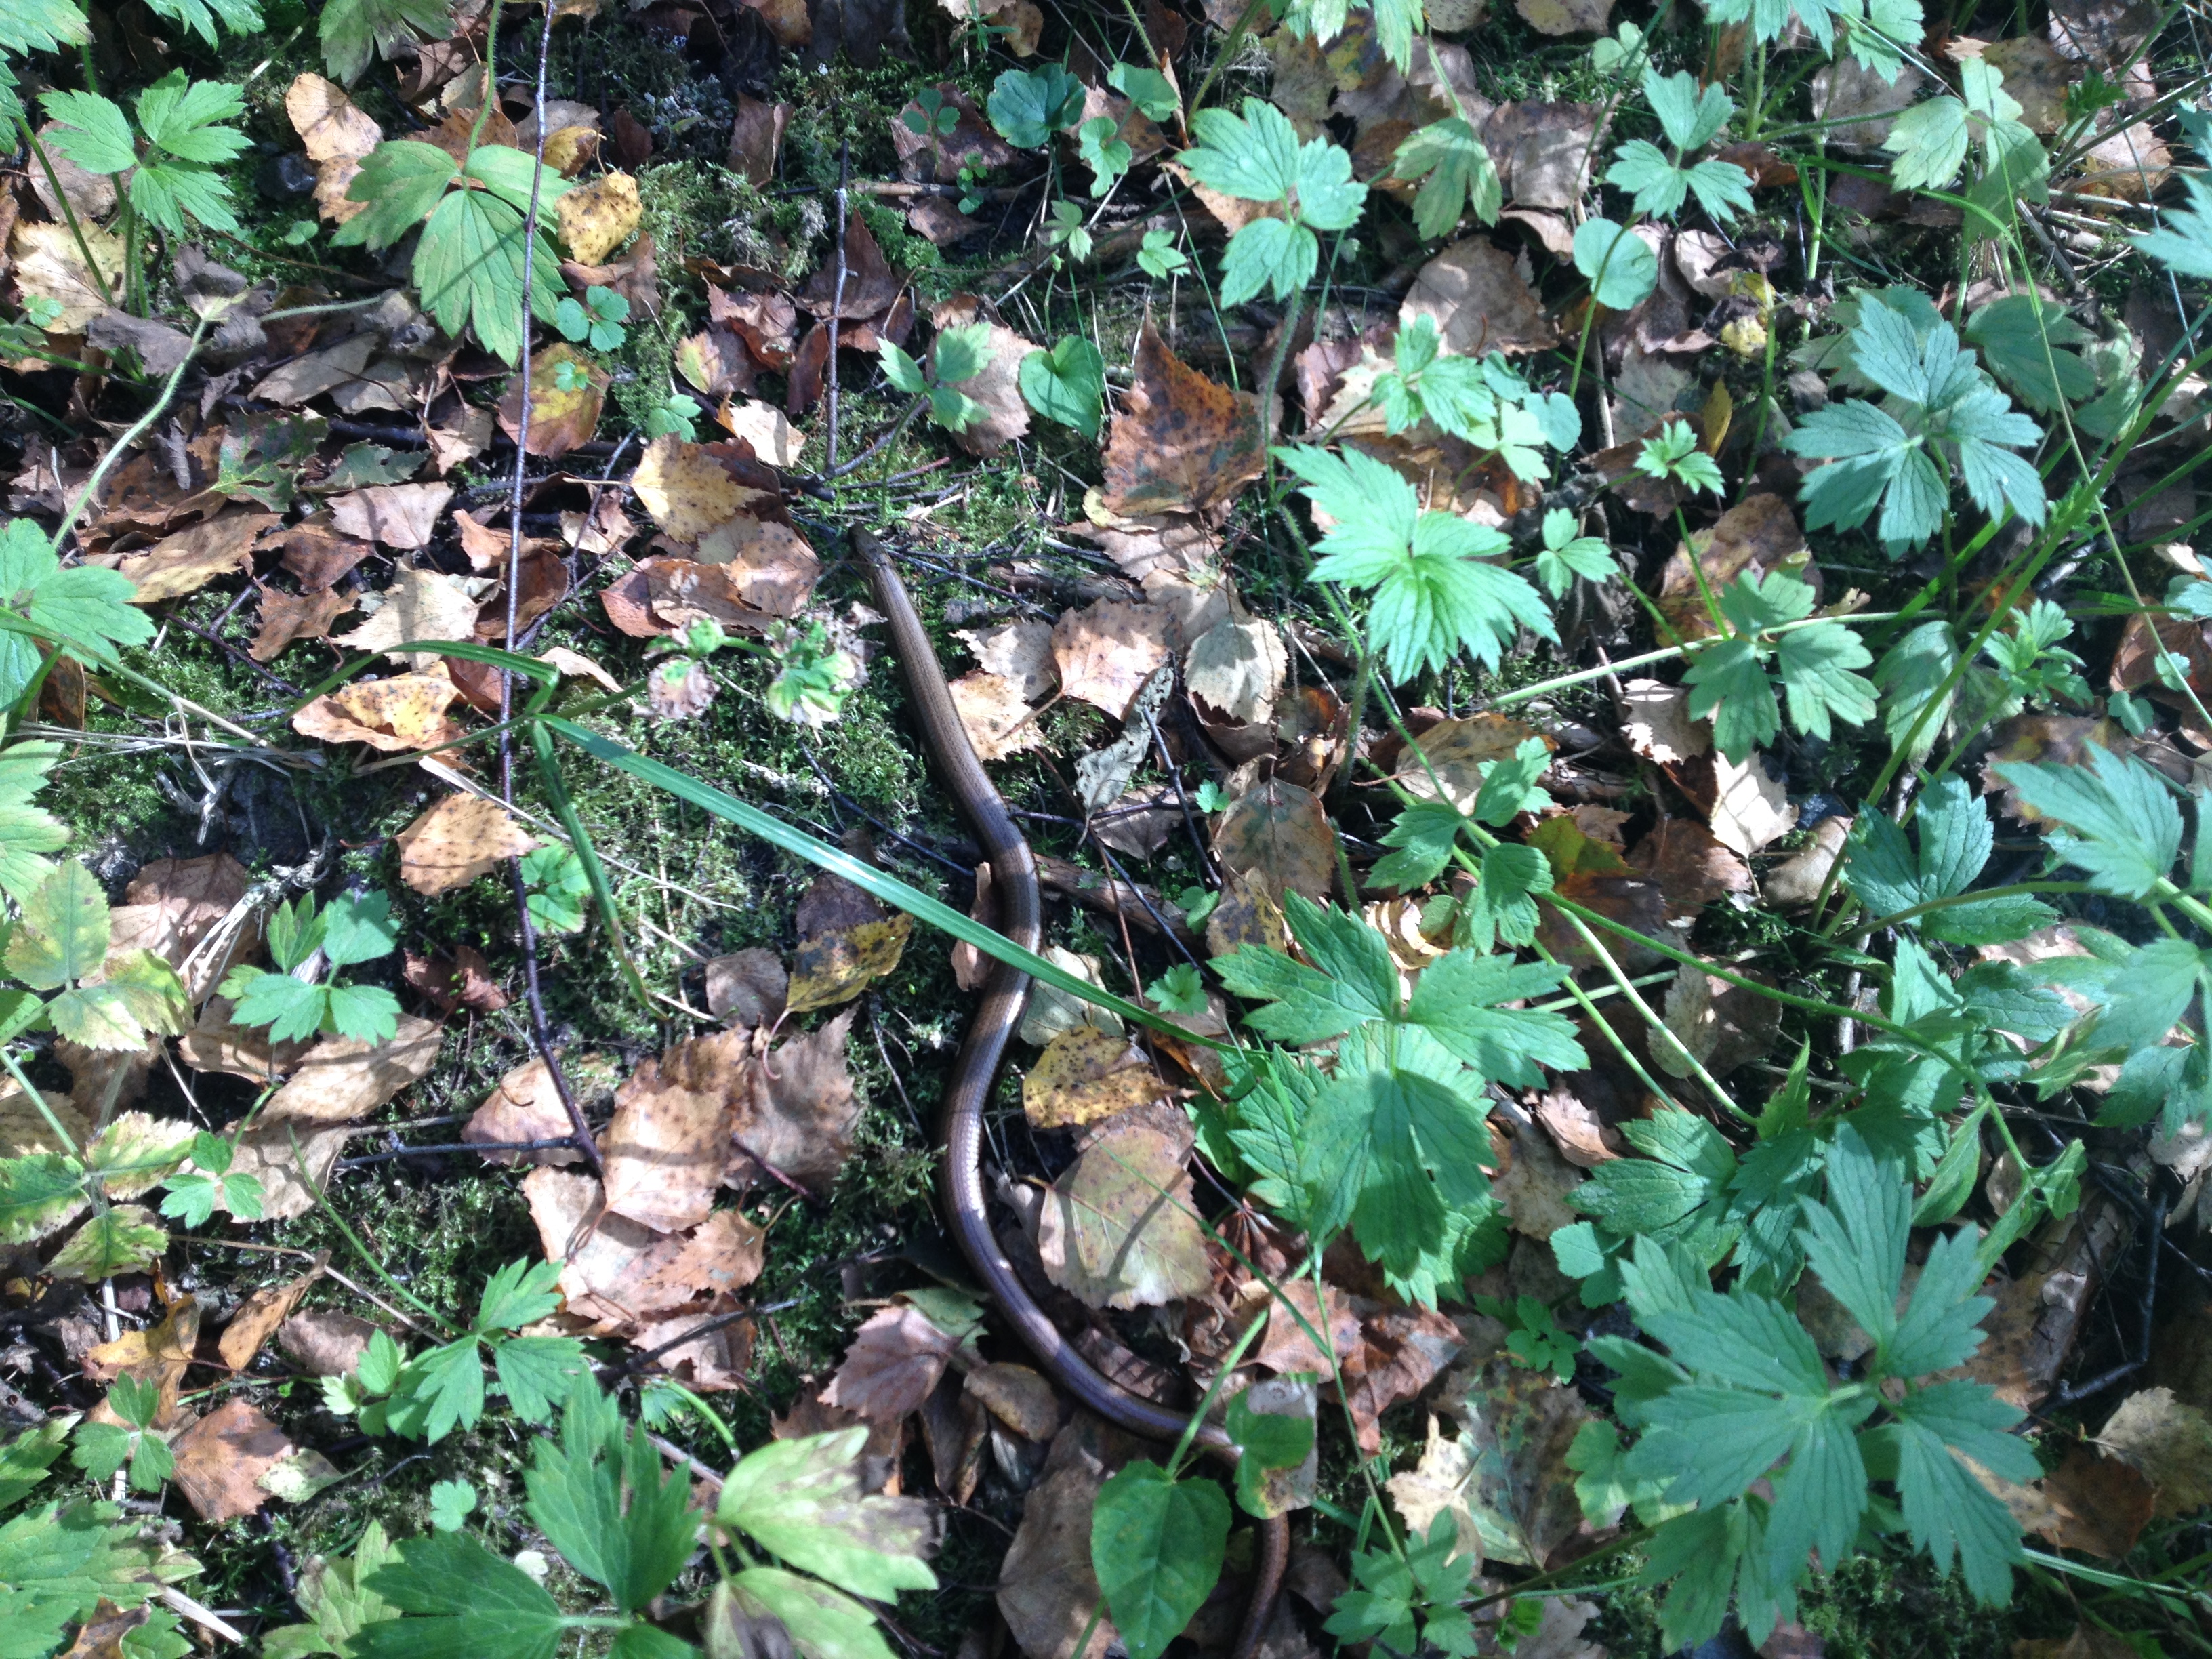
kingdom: Animalia
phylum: Chordata
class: Squamata
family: Anguidae
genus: Anguis
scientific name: Anguis colchica
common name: Slow worm
